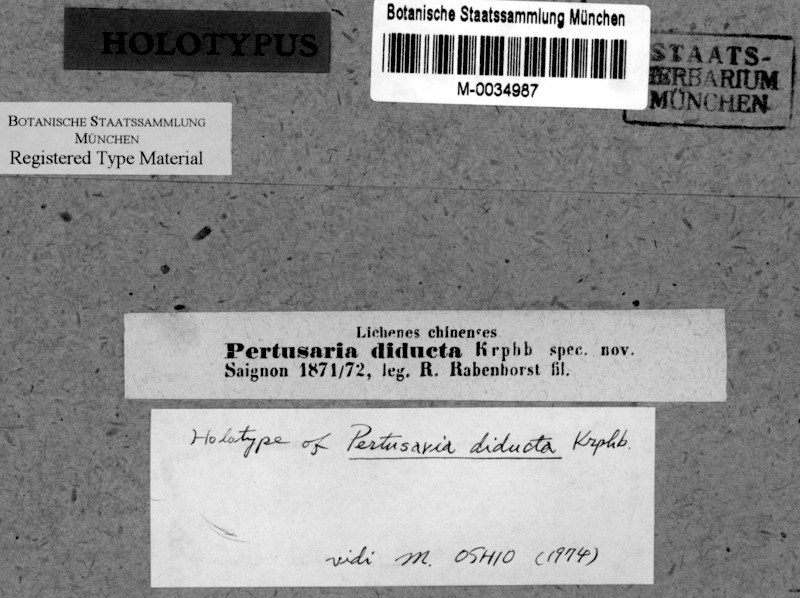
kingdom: Fungi
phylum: Ascomycota
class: Lecanoromycetes
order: Pertusariales
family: Pertusariaceae
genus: Pertusaria
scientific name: Pertusaria
